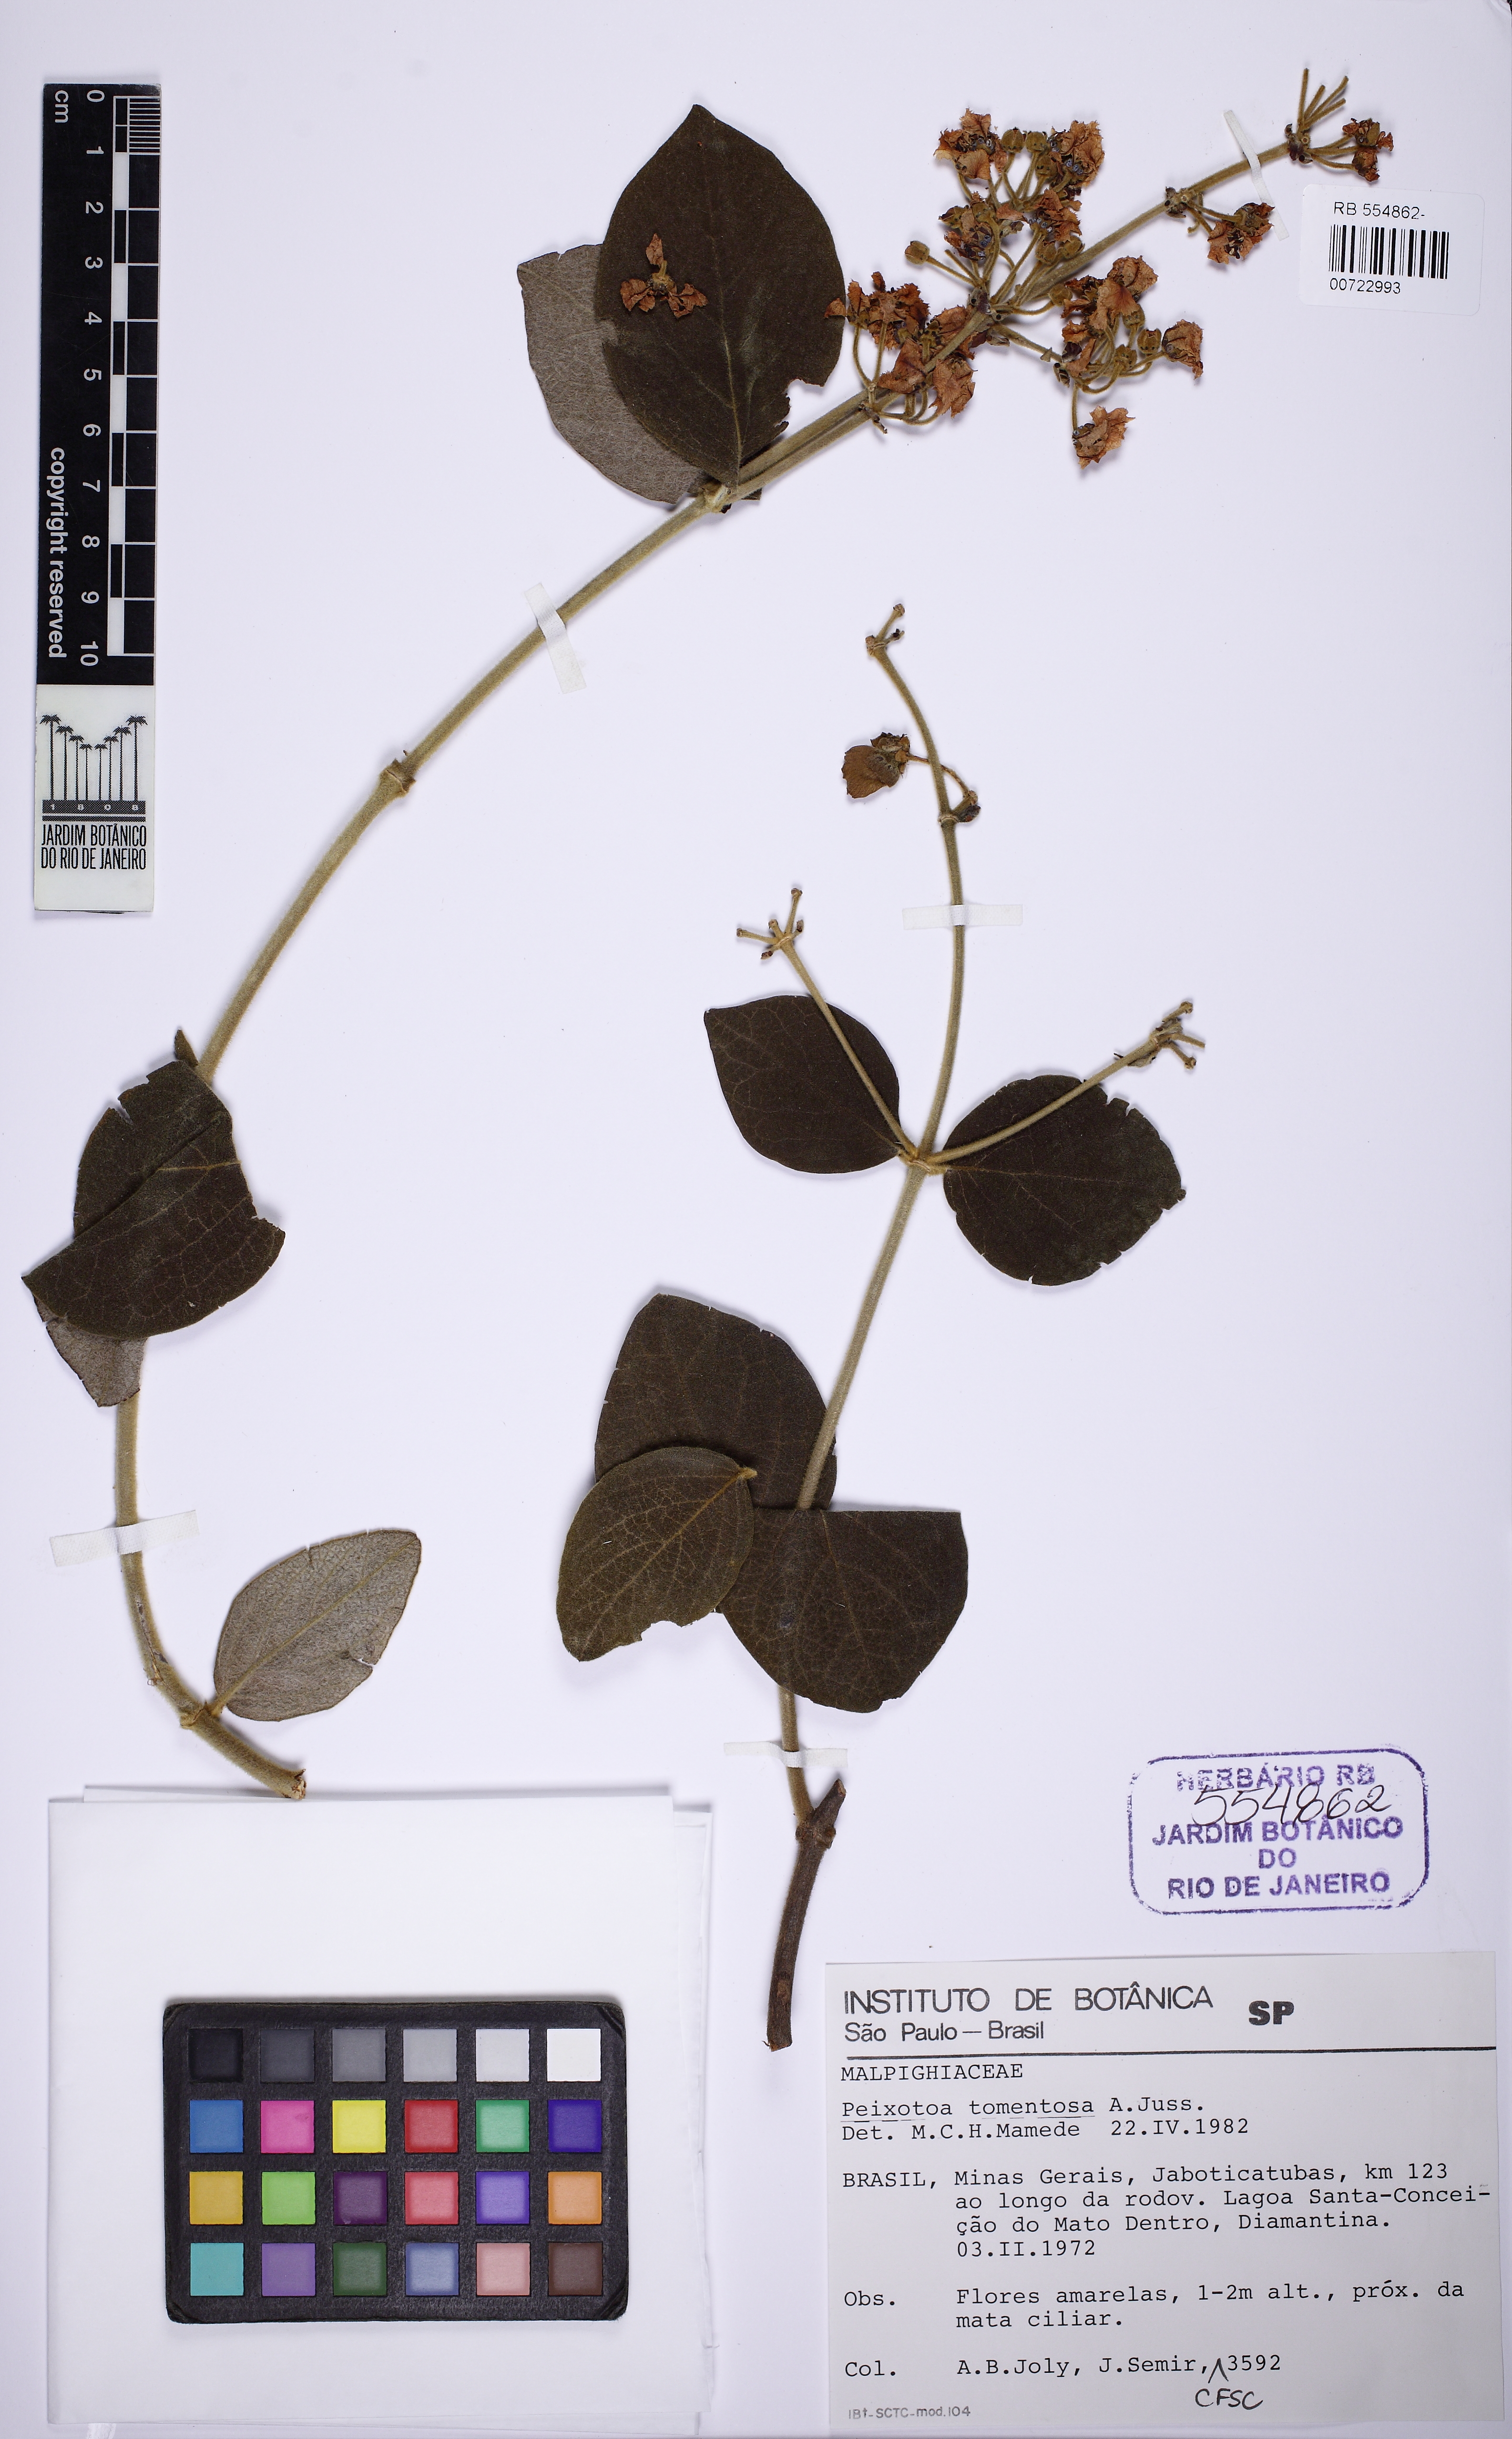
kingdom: Plantae
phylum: Tracheophyta
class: Magnoliopsida
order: Malpighiales
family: Malpighiaceae
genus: Peixotoa
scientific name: Peixotoa tomentosa
